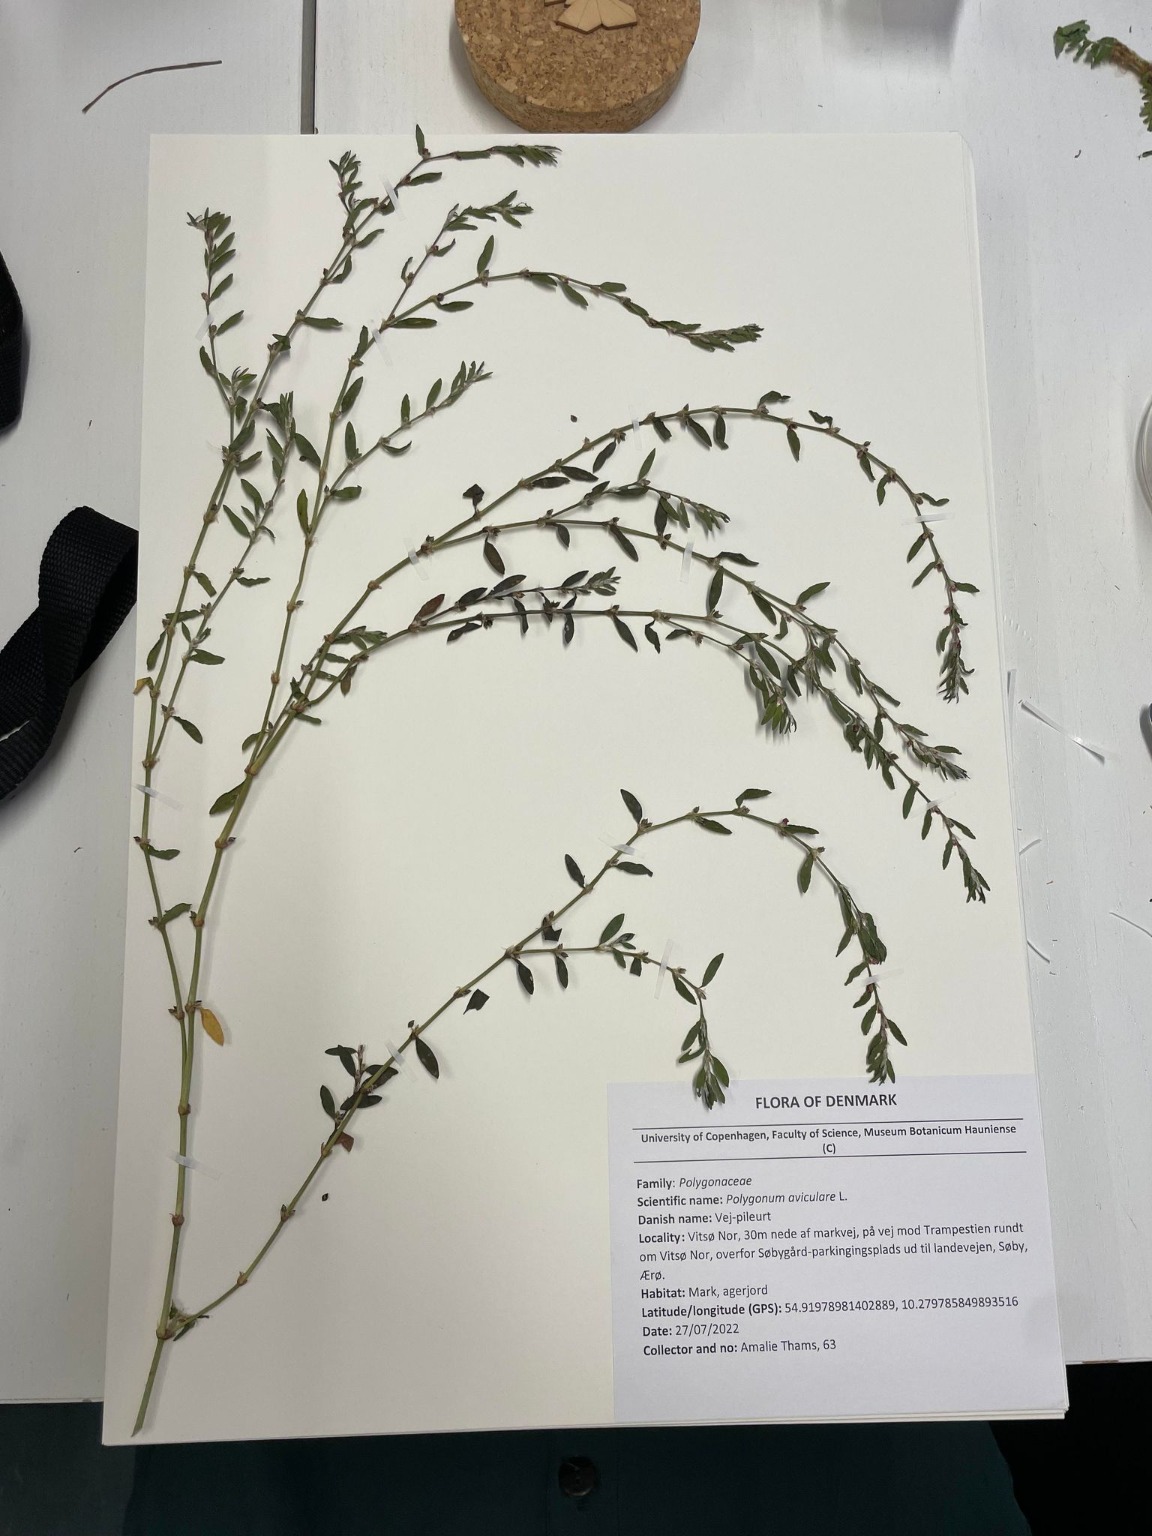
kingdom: Plantae
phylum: Tracheophyta
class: Magnoliopsida
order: Caryophyllales
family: Polygonaceae
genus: Polygonum
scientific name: Polygonum arenastrum
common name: Liggende vej-pileurt
